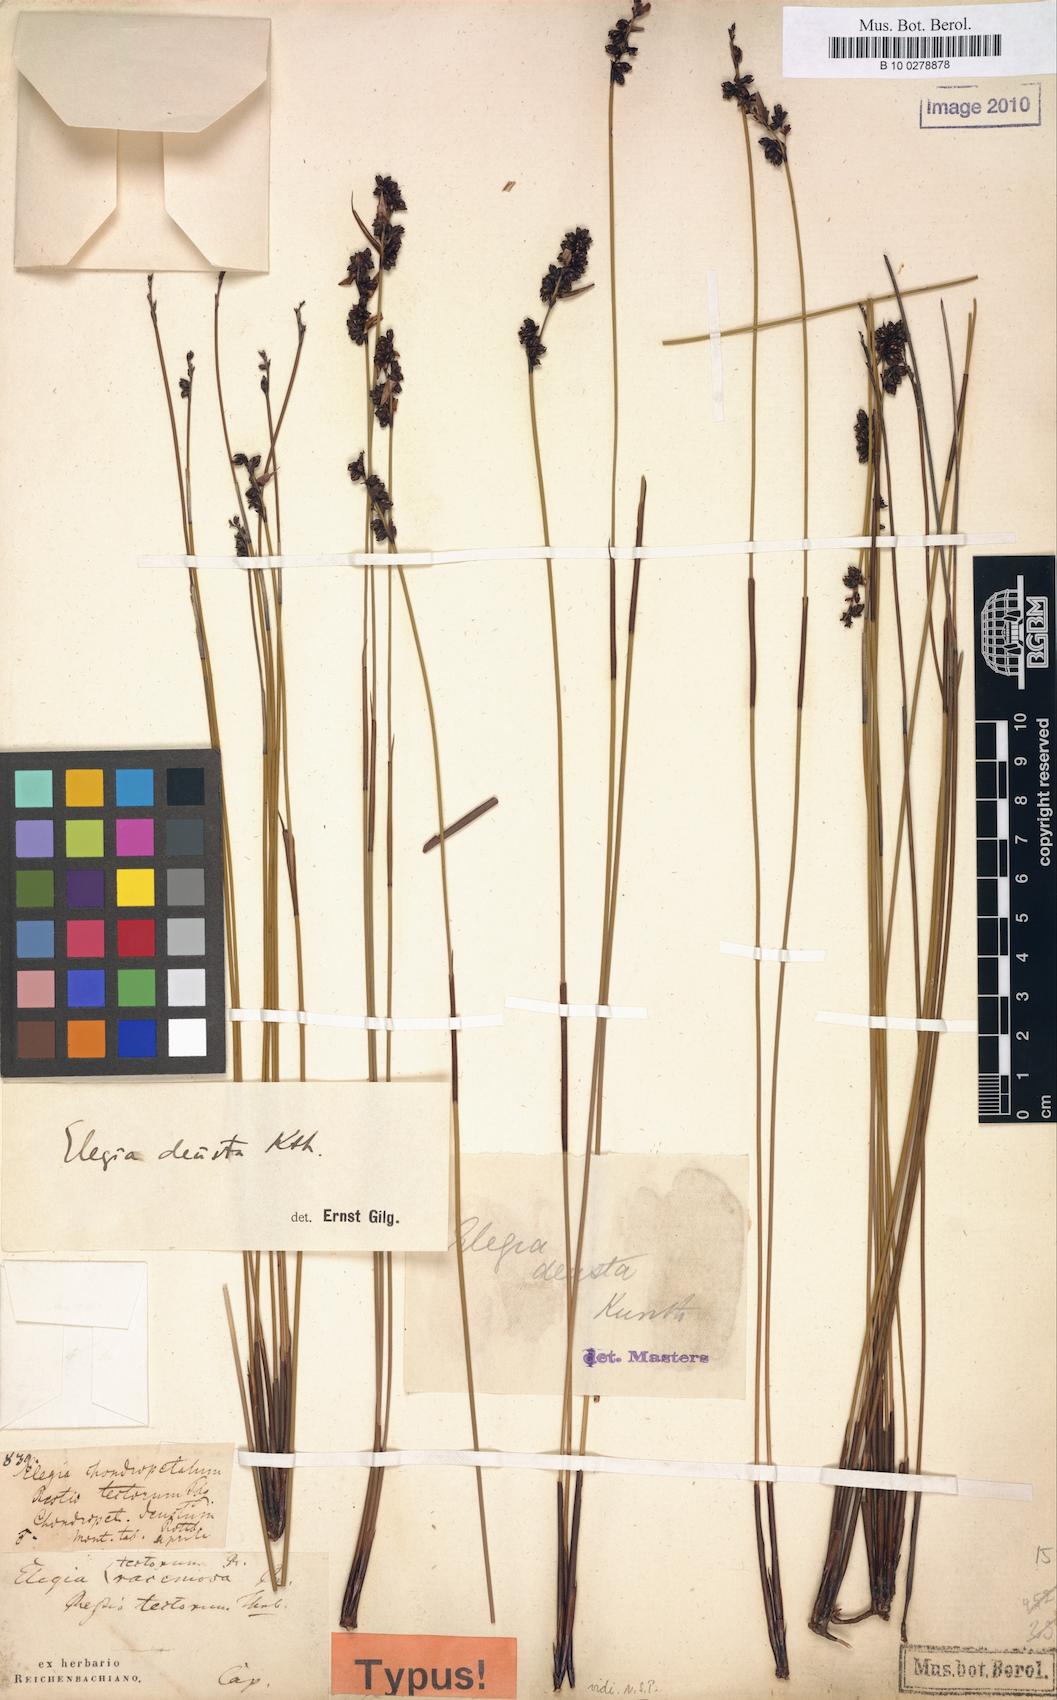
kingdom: Plantae
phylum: Tracheophyta
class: Liliopsida
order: Poales
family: Restionaceae
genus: Elegia
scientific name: Elegia deusta
